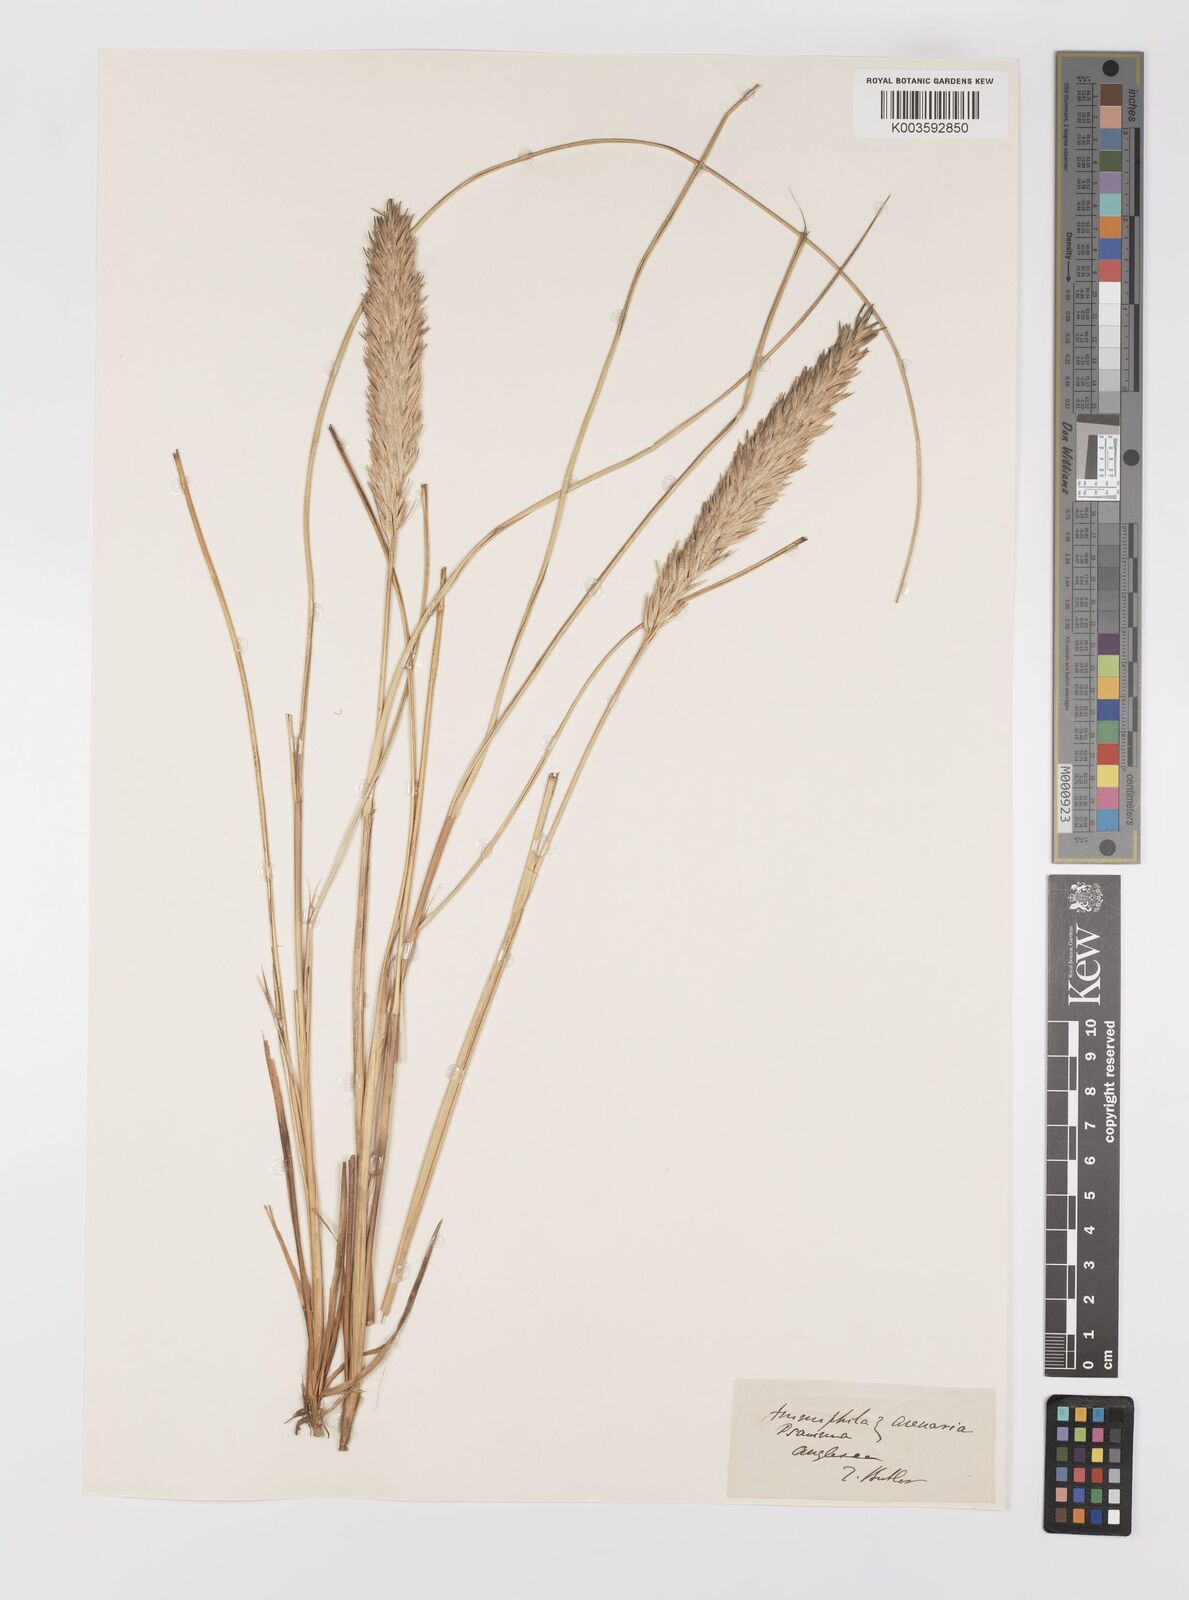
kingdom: Plantae
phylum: Tracheophyta
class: Liliopsida
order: Poales
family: Poaceae
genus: Calamagrostis
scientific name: Calamagrostis arenaria
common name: European beachgrass
